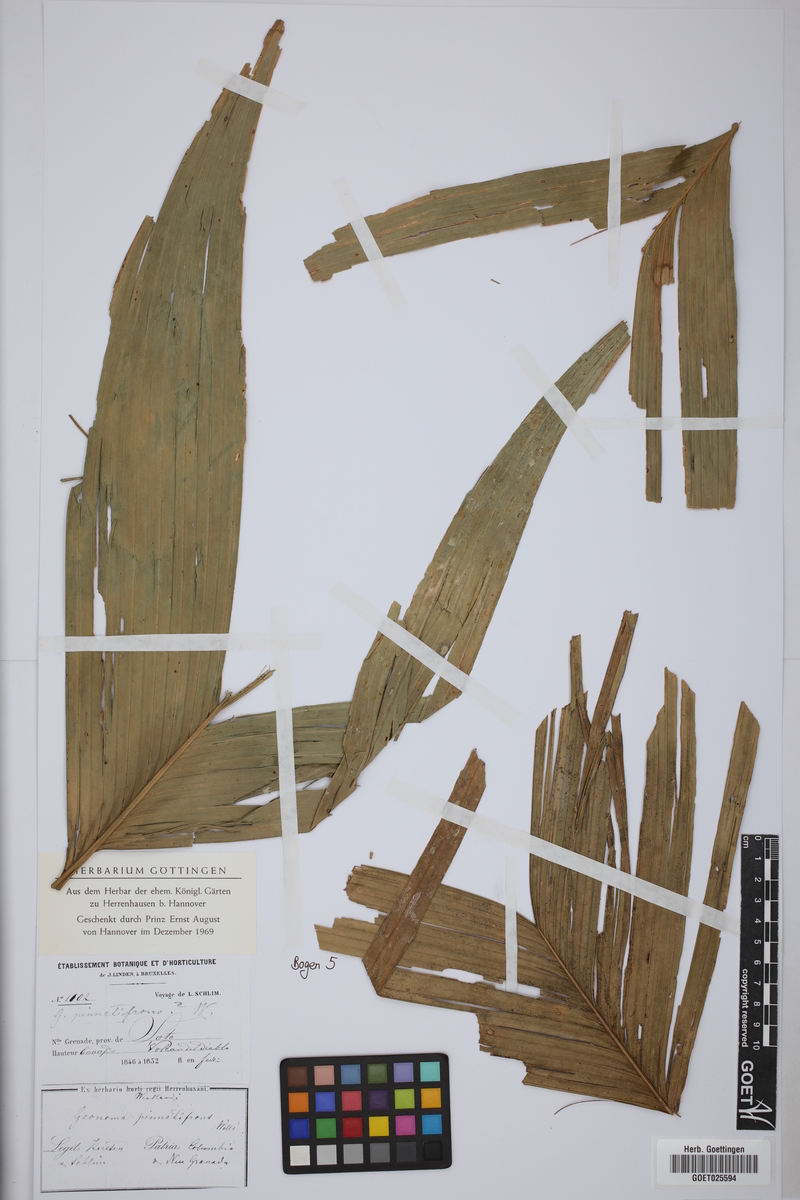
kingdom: Plantae
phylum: Tracheophyta
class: Liliopsida
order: Arecales
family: Arecaceae
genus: Geonoma
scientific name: Geonoma pinnatifrons
